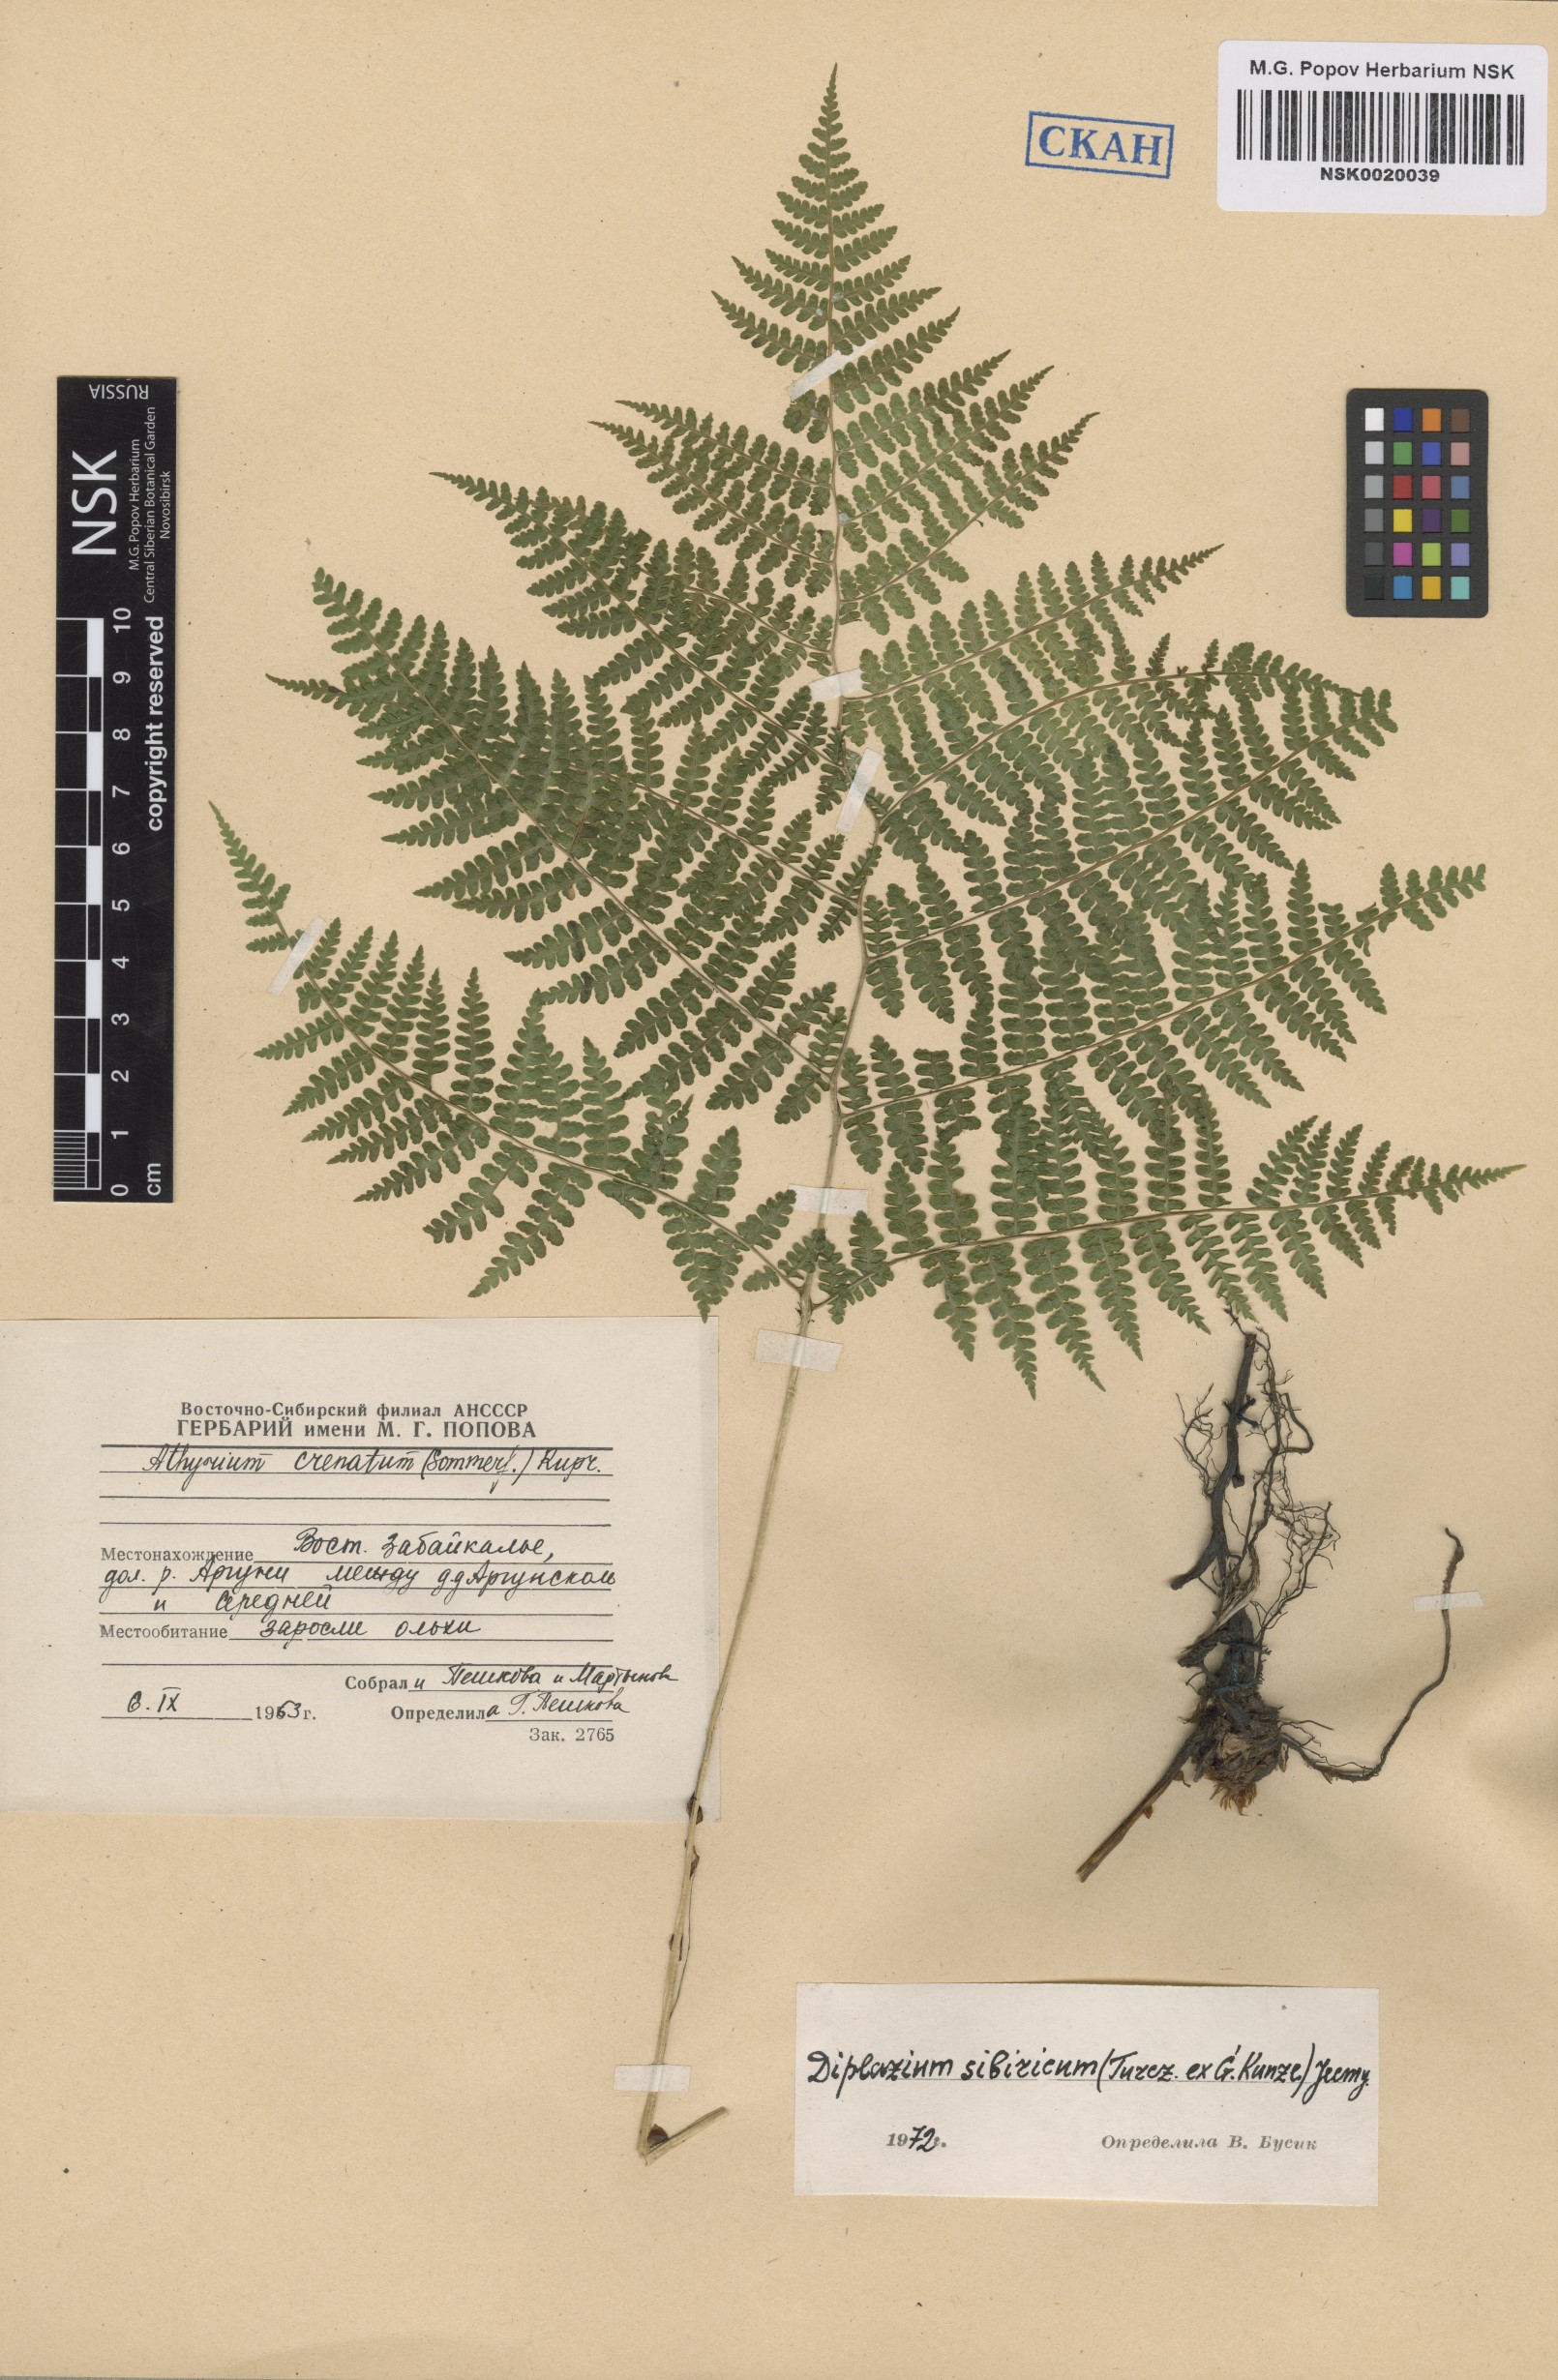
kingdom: Plantae
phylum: Tracheophyta
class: Polypodiopsida
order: Polypodiales
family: Athyriaceae
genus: Diplazium
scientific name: Diplazium sibiricum
